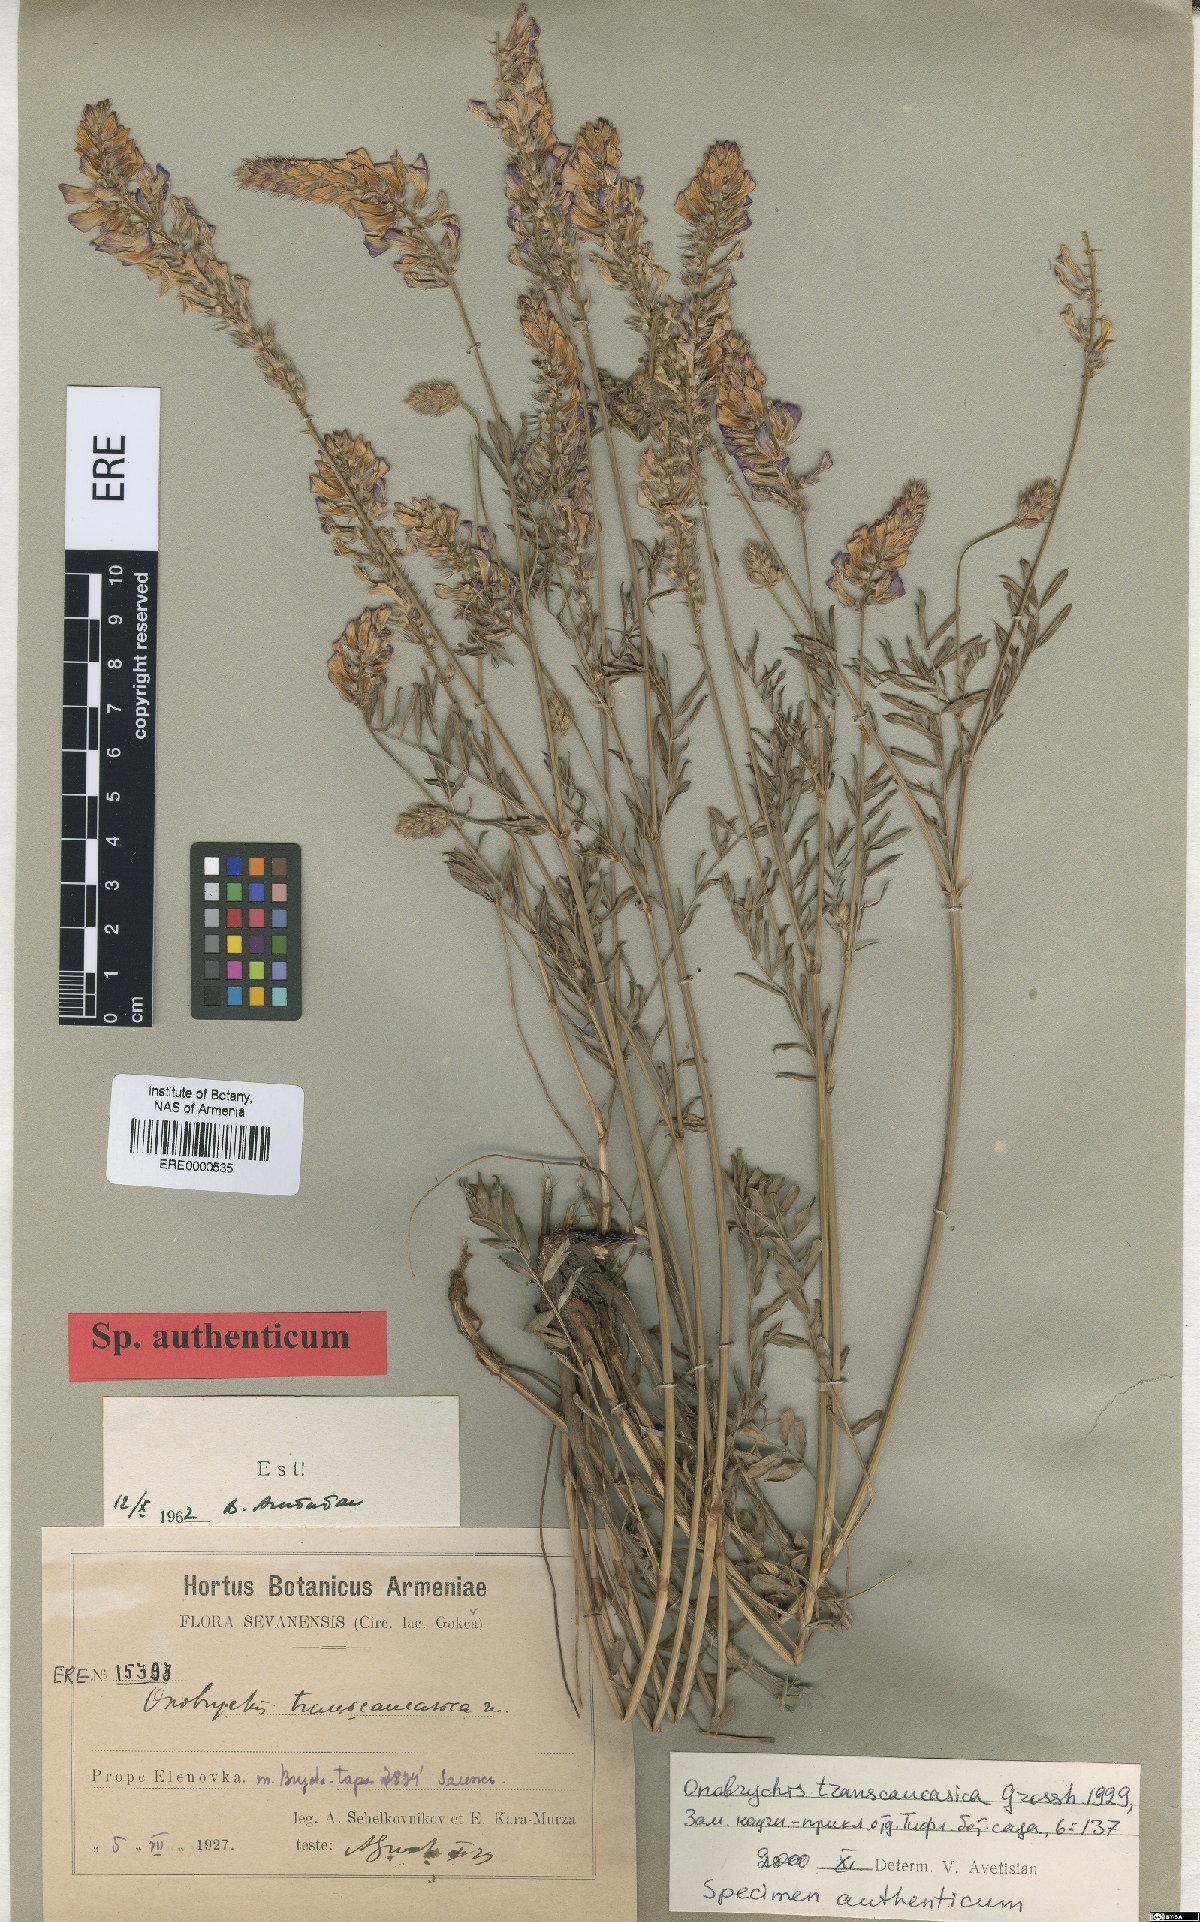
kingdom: Plantae
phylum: Tracheophyta
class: Magnoliopsida
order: Fabales
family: Fabaceae
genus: Onobrychis
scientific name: Onobrychis transcaucasica
